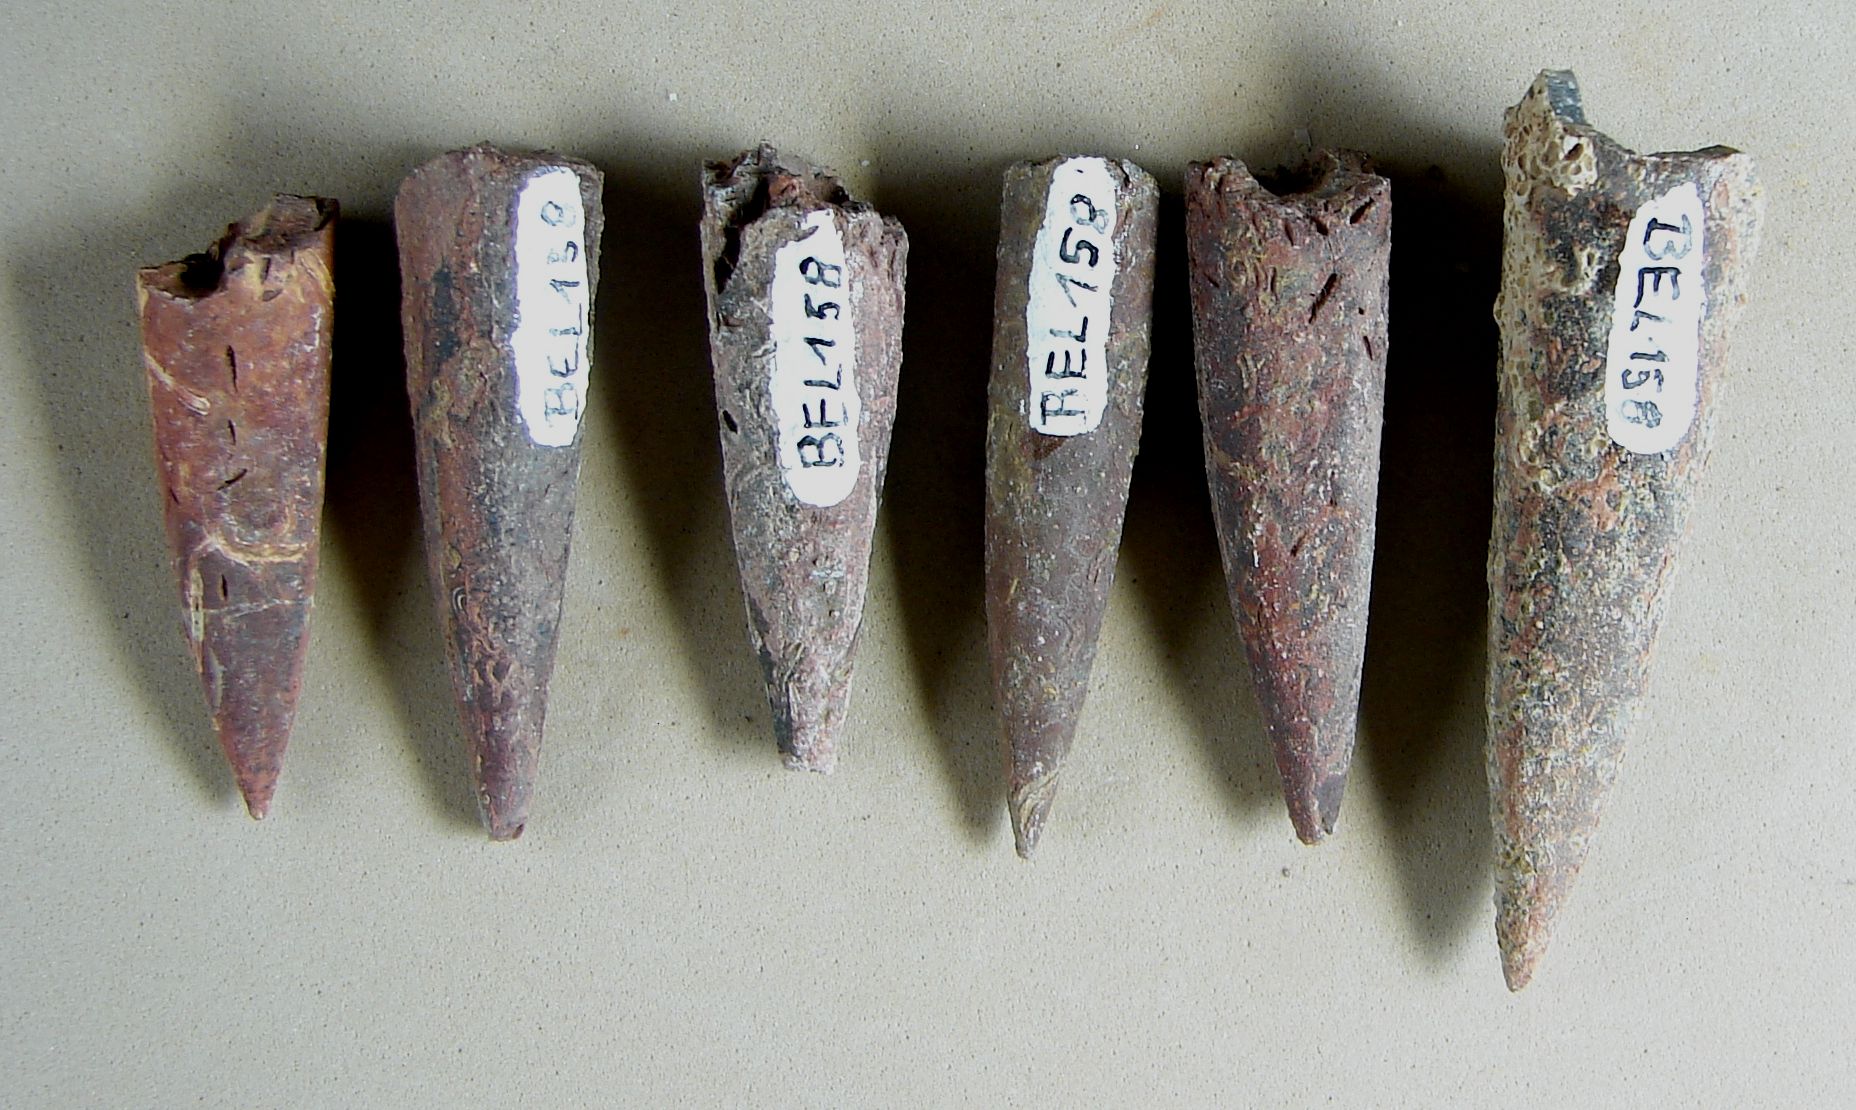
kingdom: Animalia
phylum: Mollusca
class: Cephalopoda
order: Belemnitida
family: Megateuthididae
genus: Acrocoelites
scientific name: Acrocoelites pyramidalis
